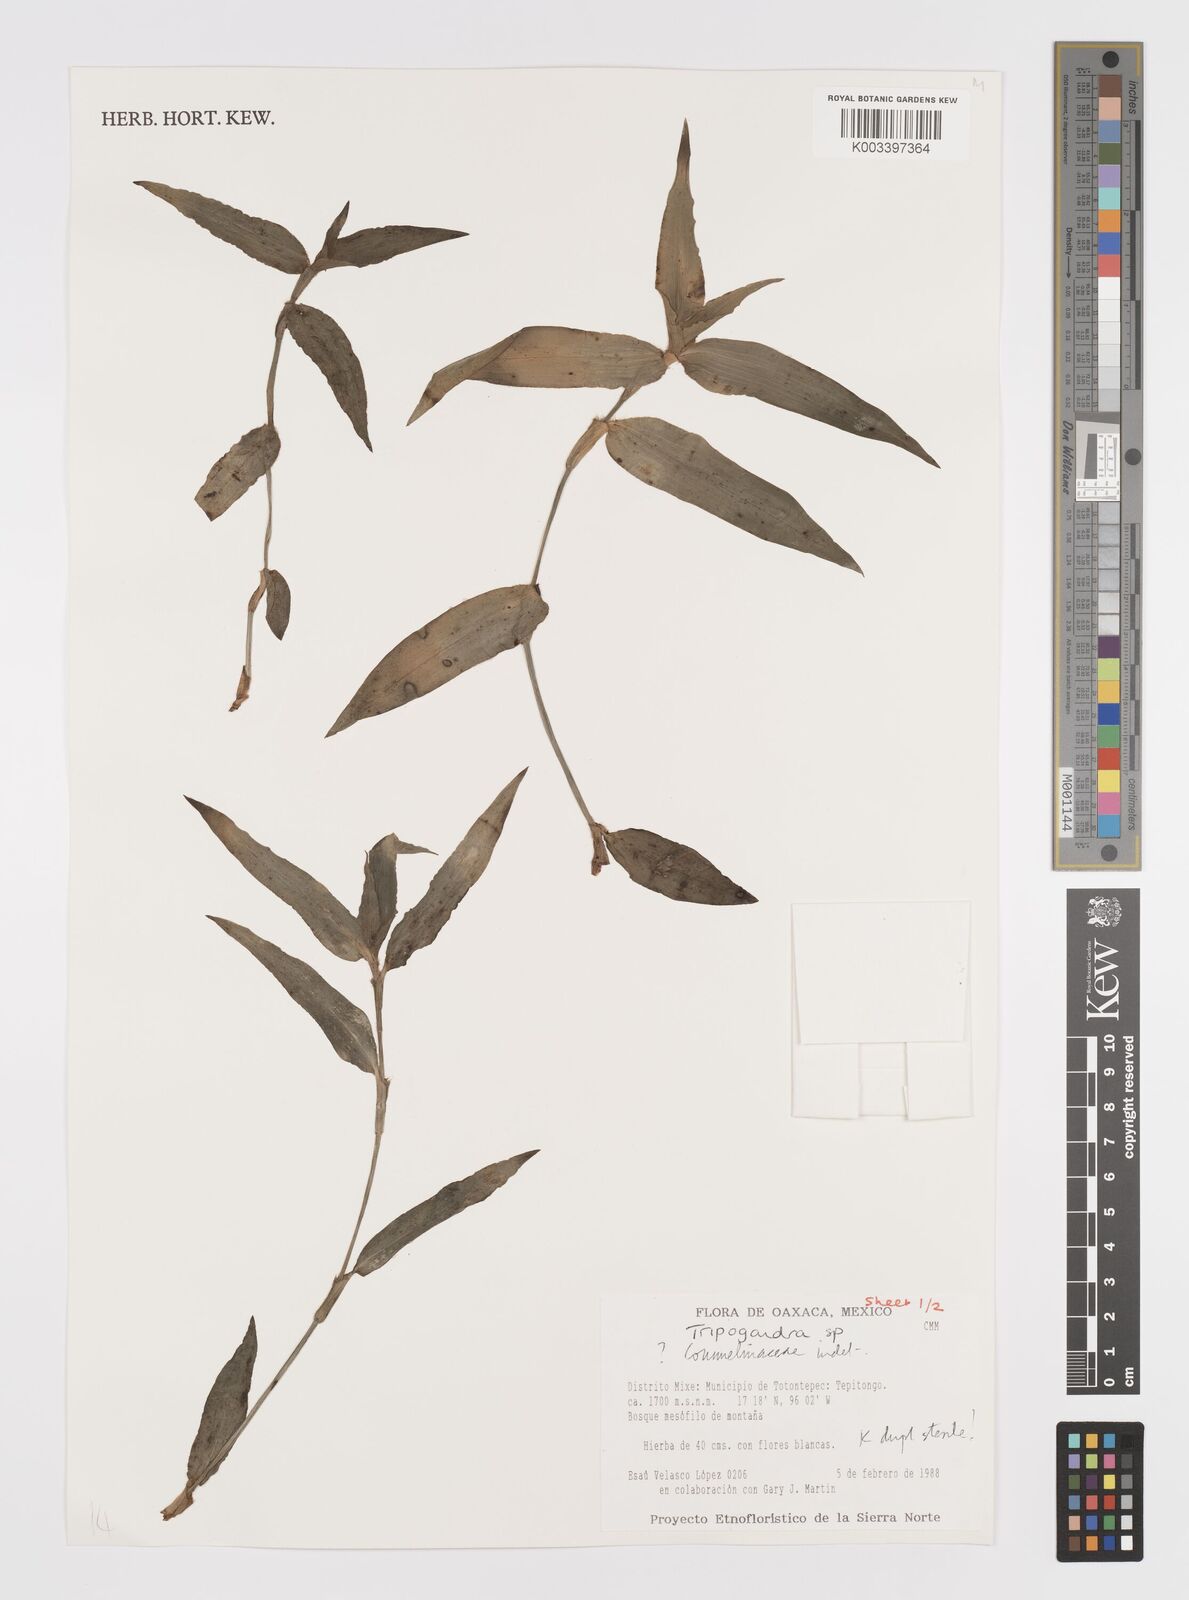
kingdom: Plantae
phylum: Tracheophyta
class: Liliopsida
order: Commelinales
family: Commelinaceae
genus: Callisia
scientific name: Callisia
